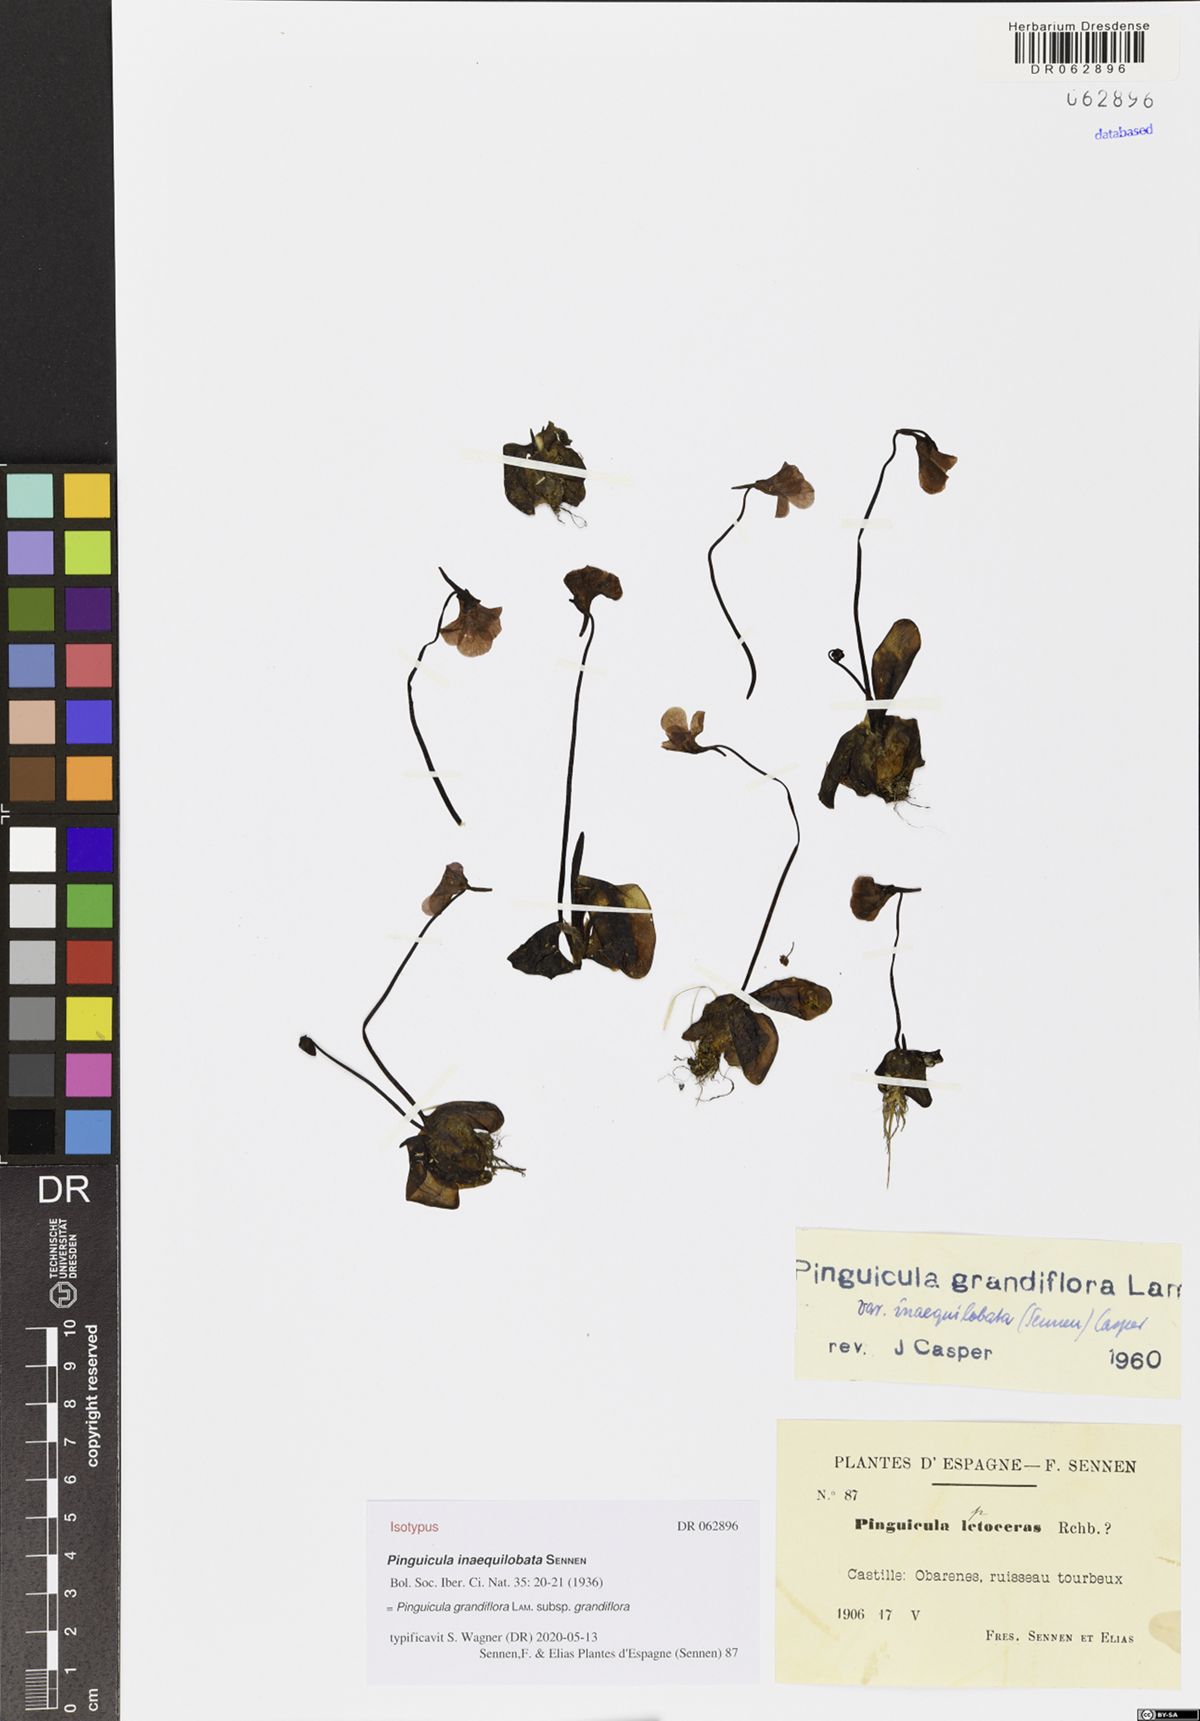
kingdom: Plantae
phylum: Tracheophyta
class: Magnoliopsida
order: Lamiales
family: Lentibulariaceae
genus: Pinguicula
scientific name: Pinguicula grandiflora
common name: Large-flowered butterwort
